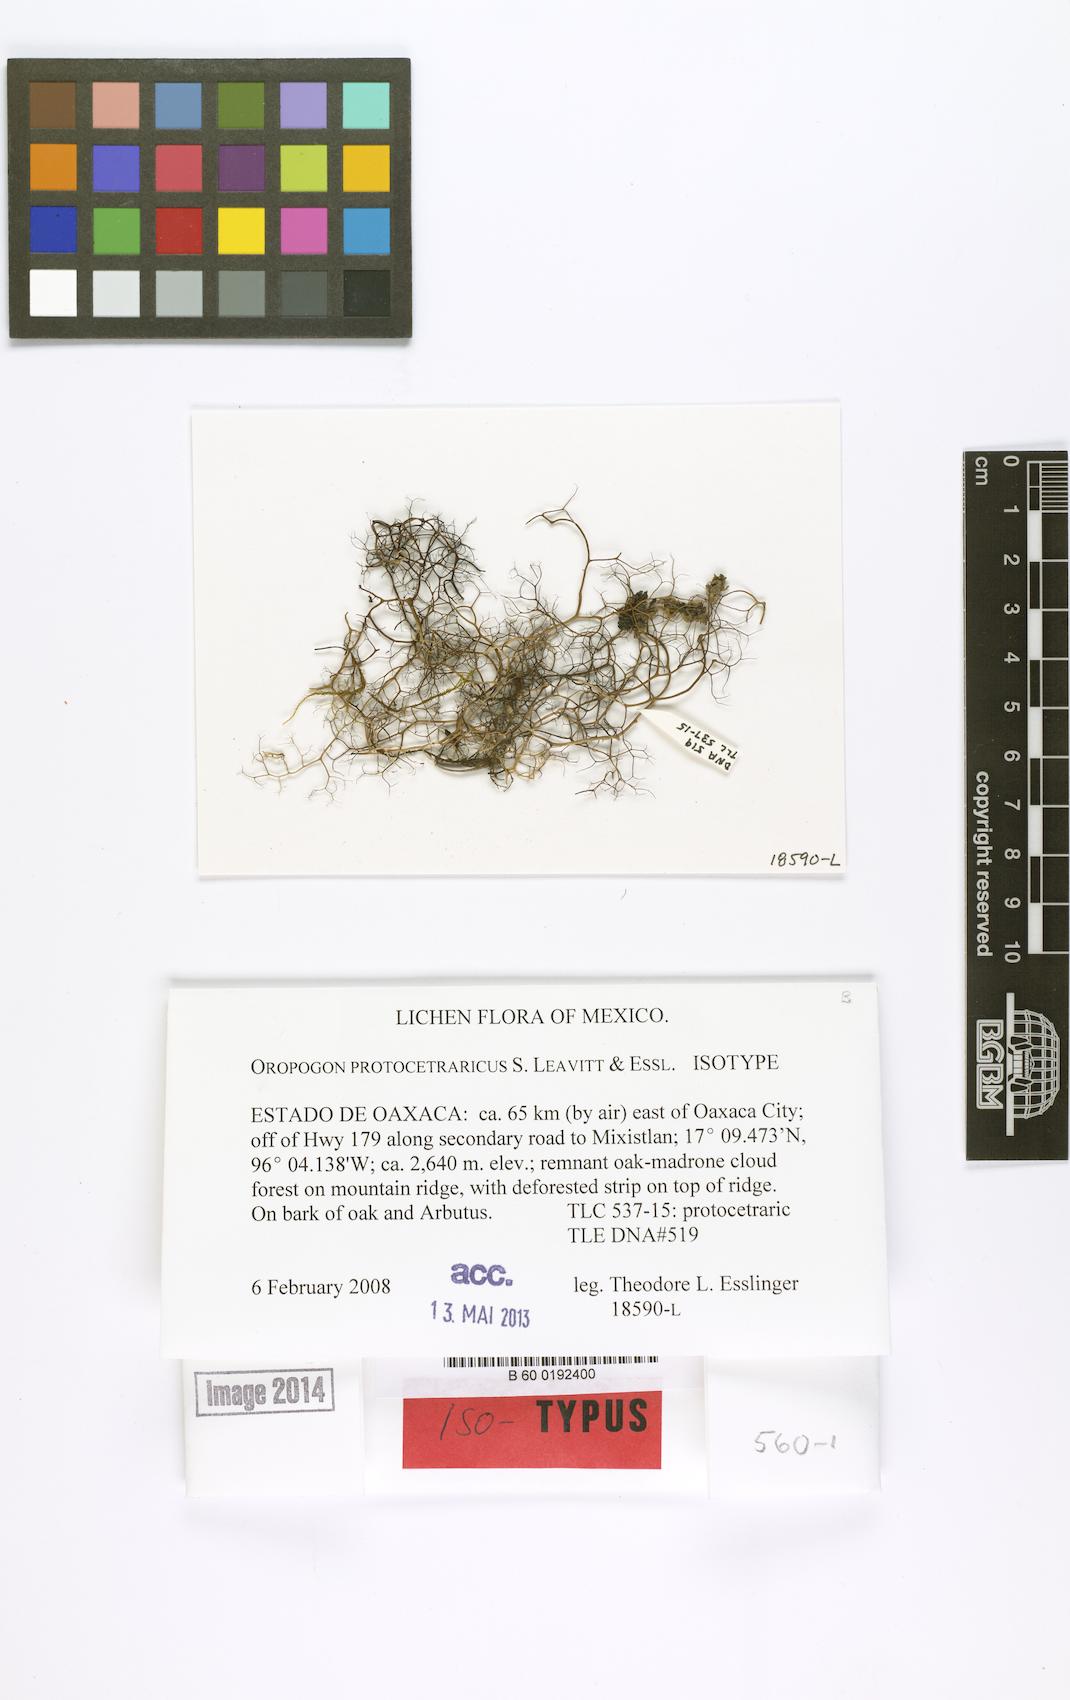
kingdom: Fungi
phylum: Ascomycota
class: Lecanoromycetes
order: Lecanorales
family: Parmeliaceae
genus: Oropogon
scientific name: Oropogon protocetraricus
